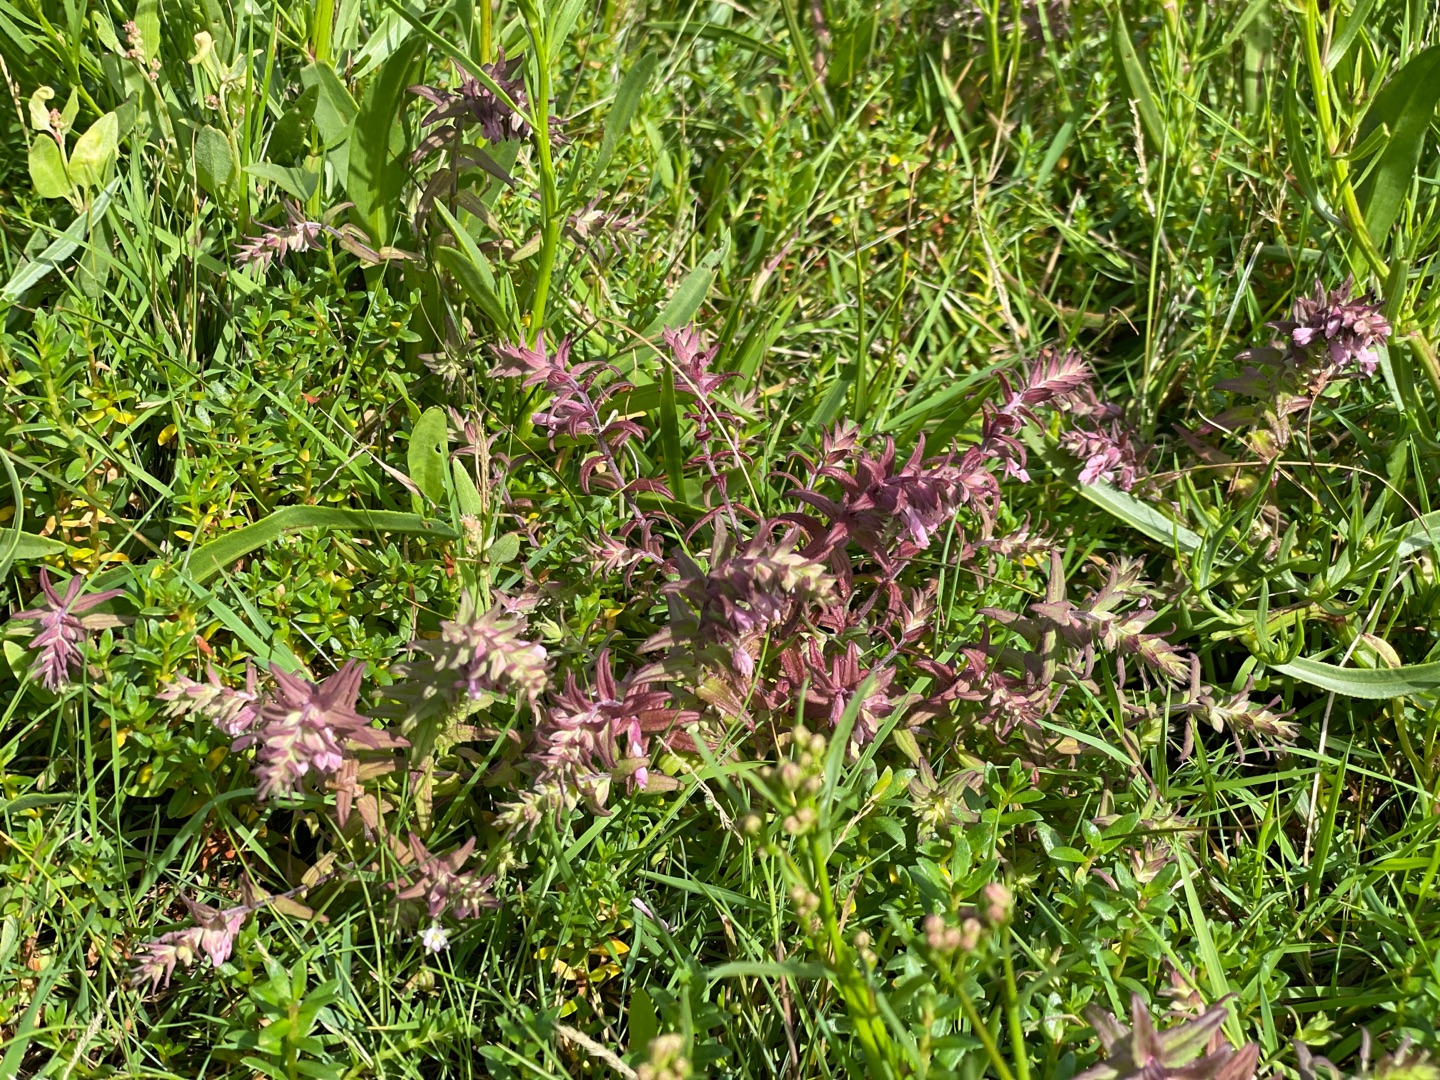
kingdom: Plantae
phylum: Tracheophyta
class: Magnoliopsida
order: Lamiales
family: Orobanchaceae
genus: Odontites
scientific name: Odontites vulgaris
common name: Høst-rødtop
